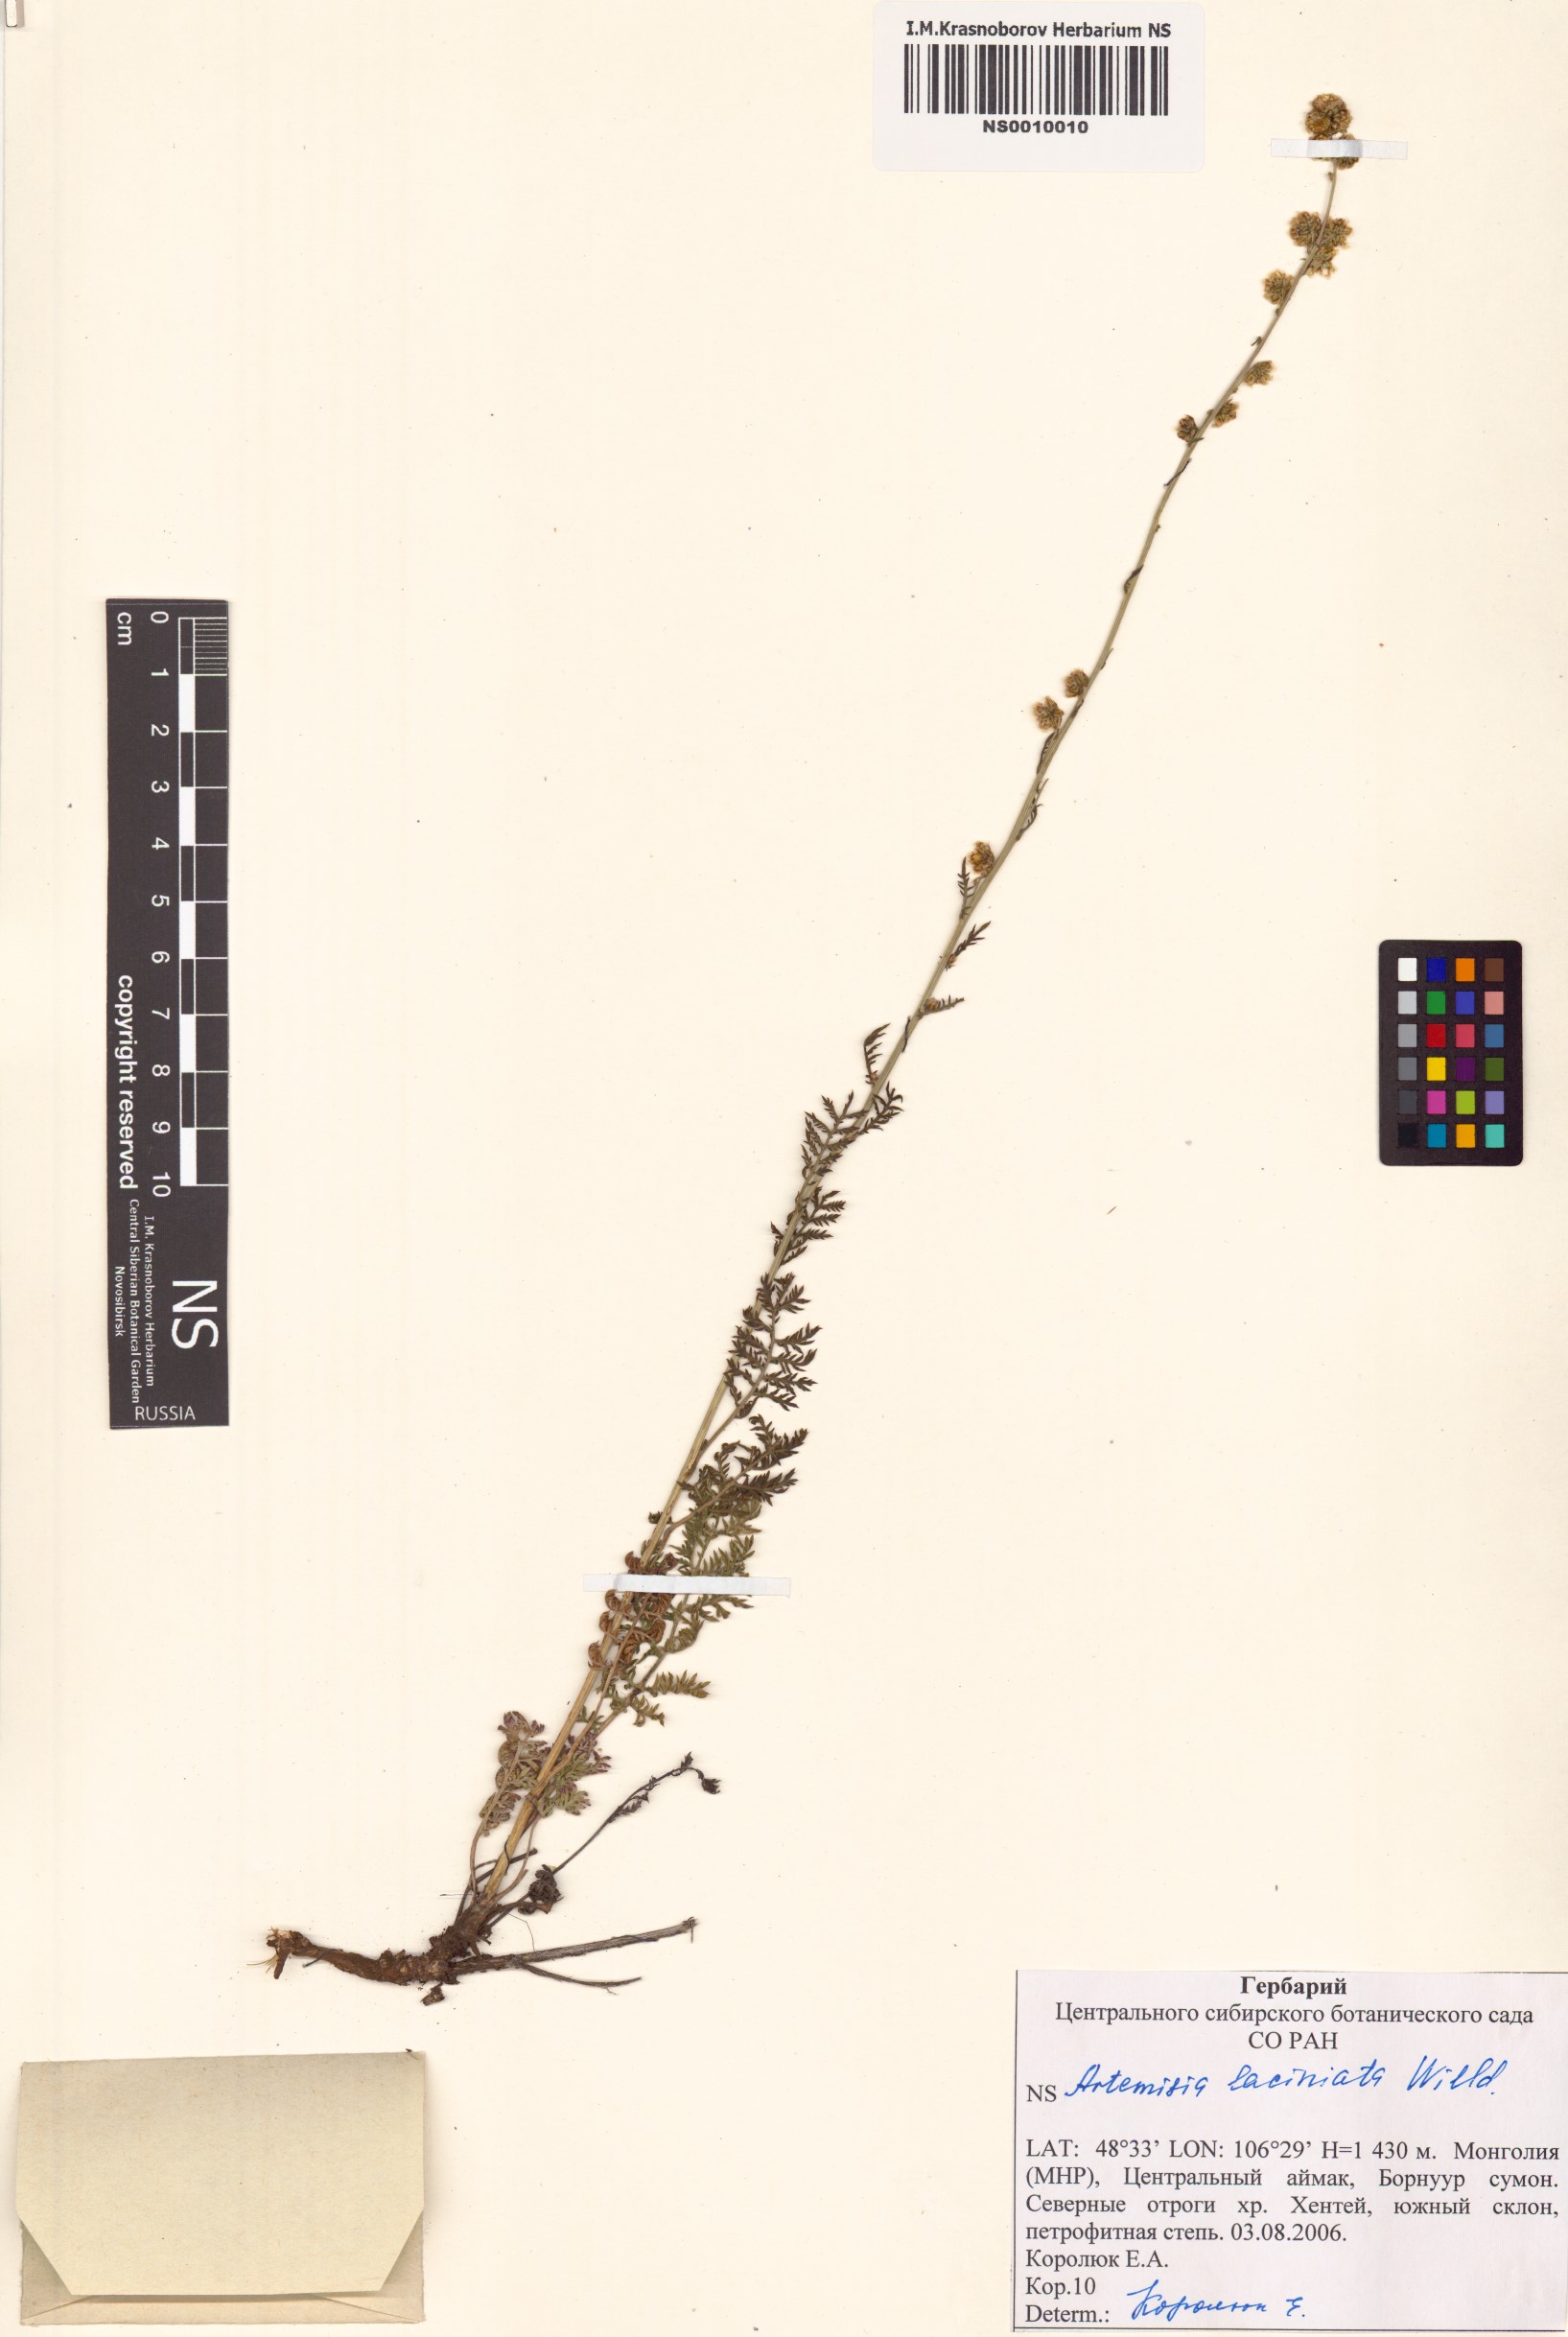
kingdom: Plantae
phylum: Tracheophyta
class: Magnoliopsida
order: Asterales
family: Asteraceae
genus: Artemisia
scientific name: Artemisia laciniata
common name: Siberian wormwood
